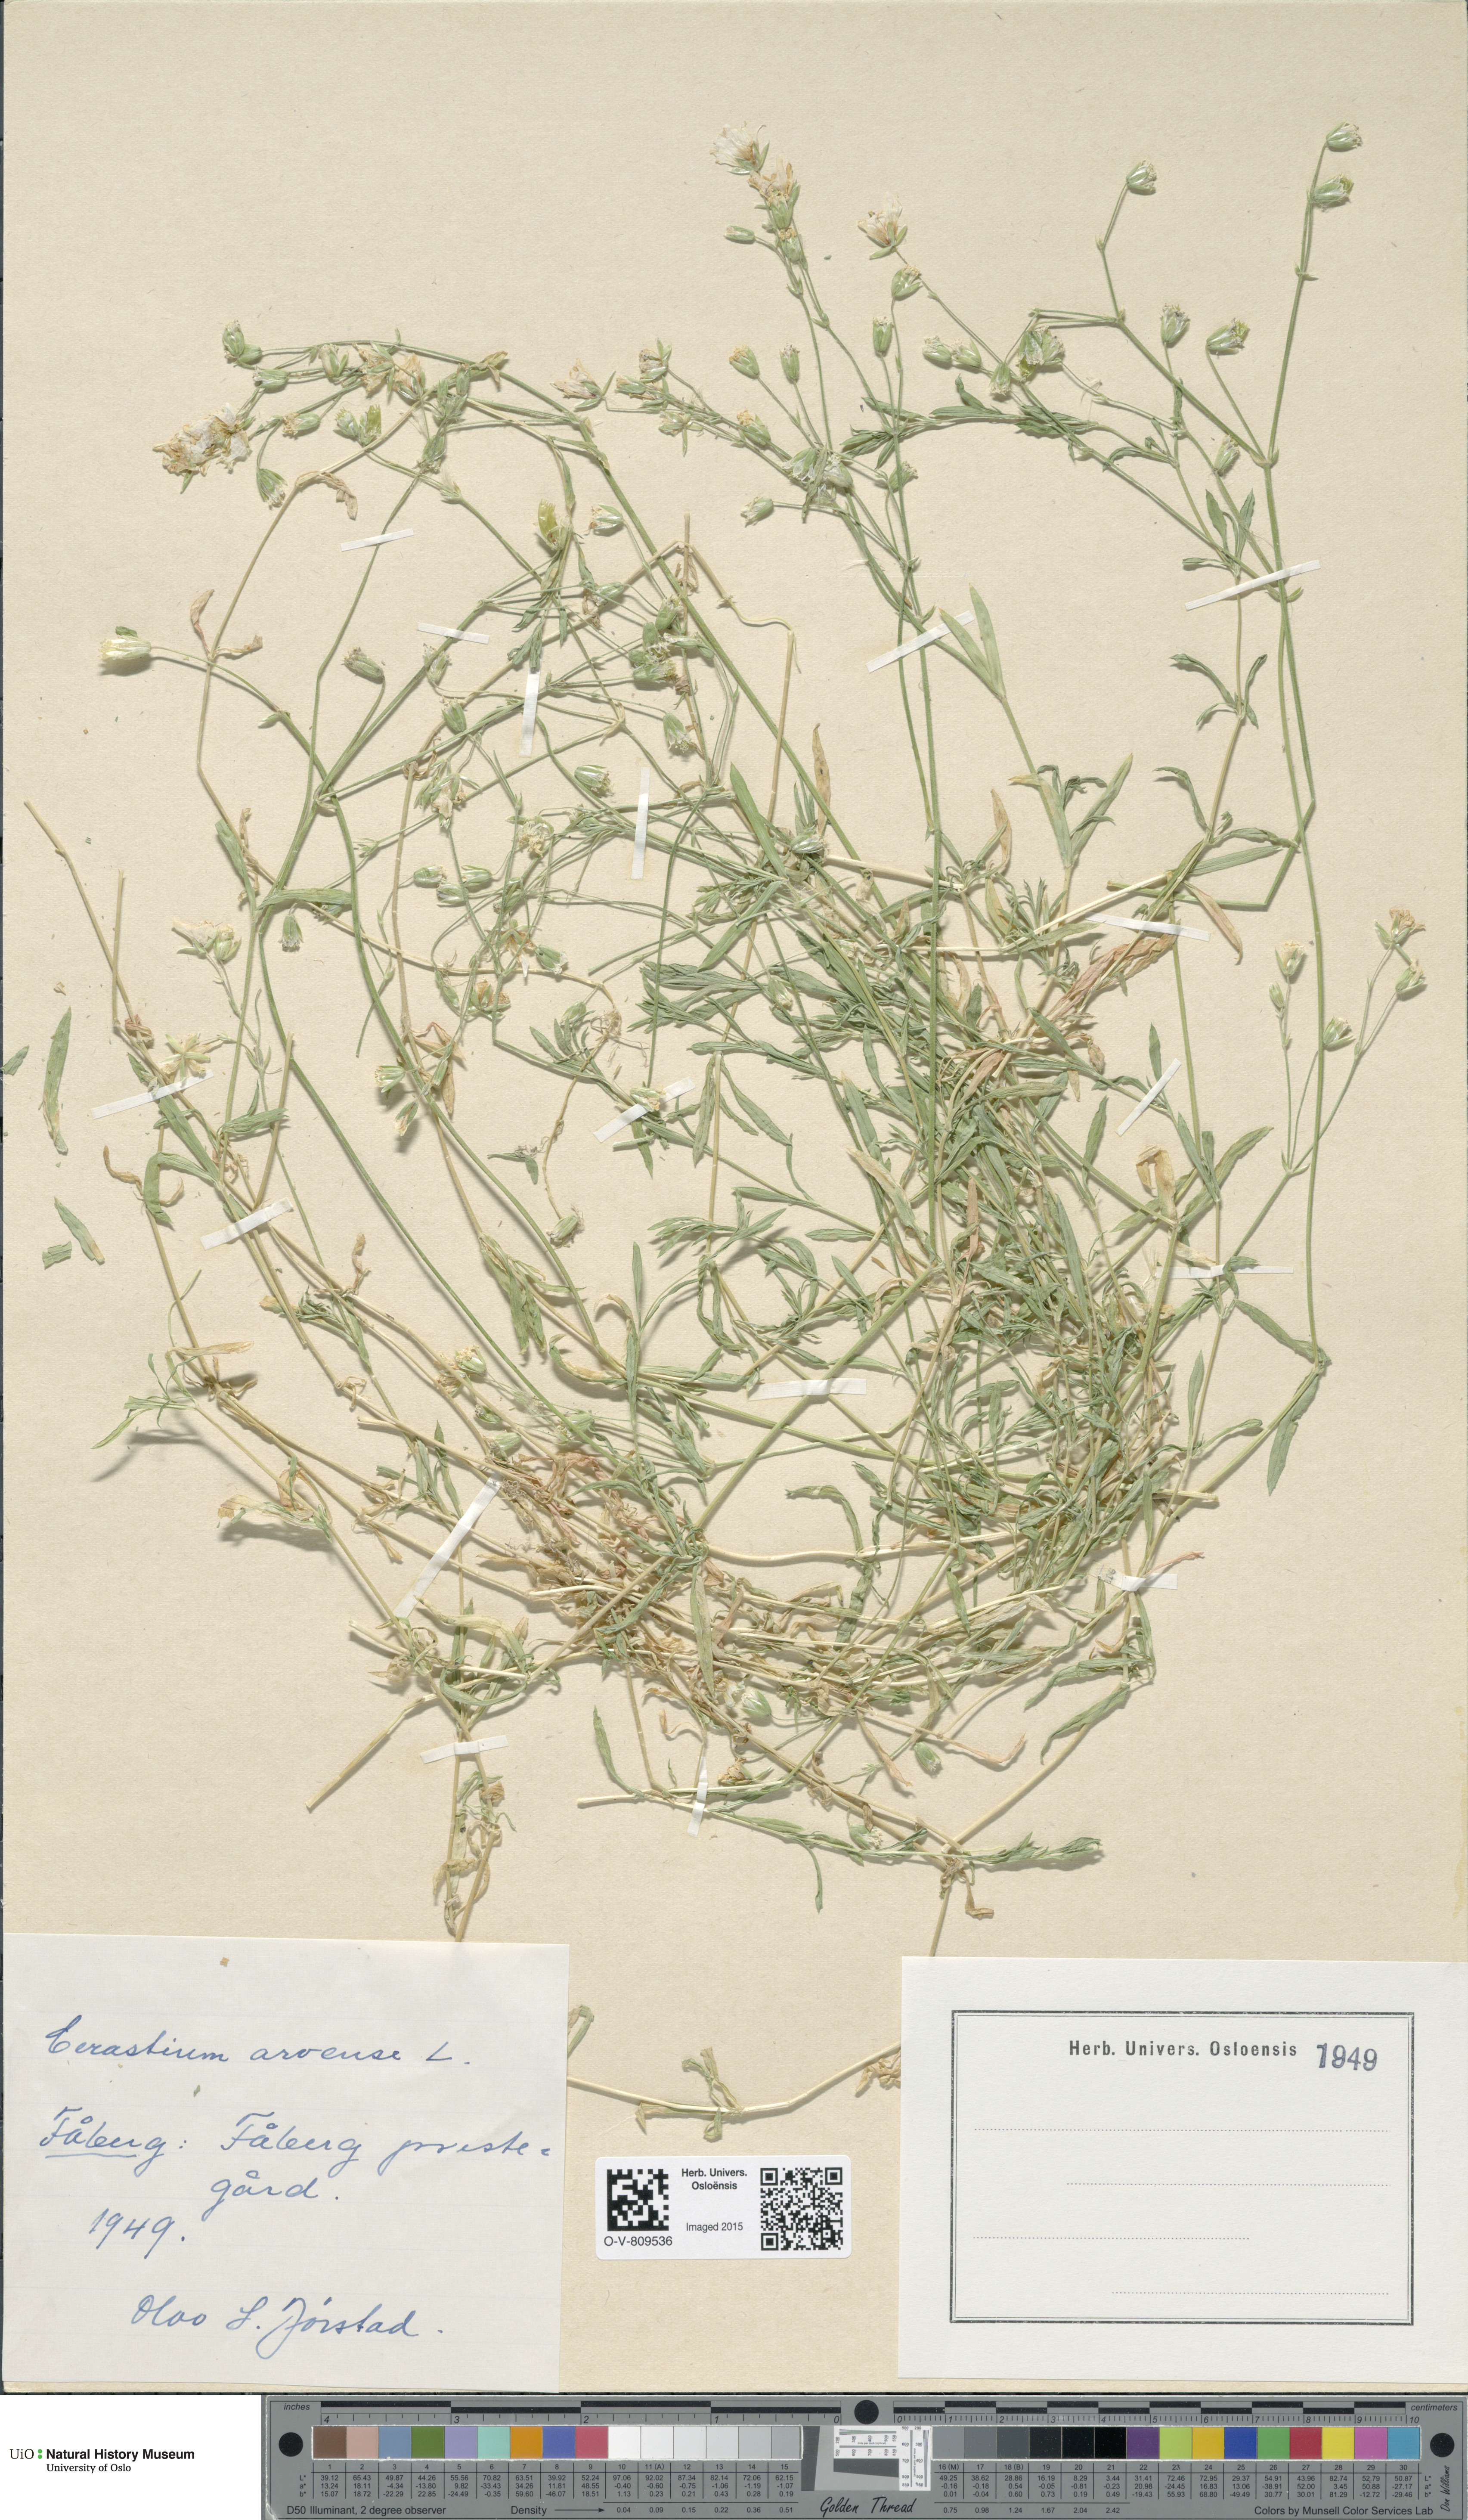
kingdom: Plantae
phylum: Tracheophyta
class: Magnoliopsida
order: Caryophyllales
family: Caryophyllaceae
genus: Cerastium
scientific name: Cerastium arvense
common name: Field mouse-ear
